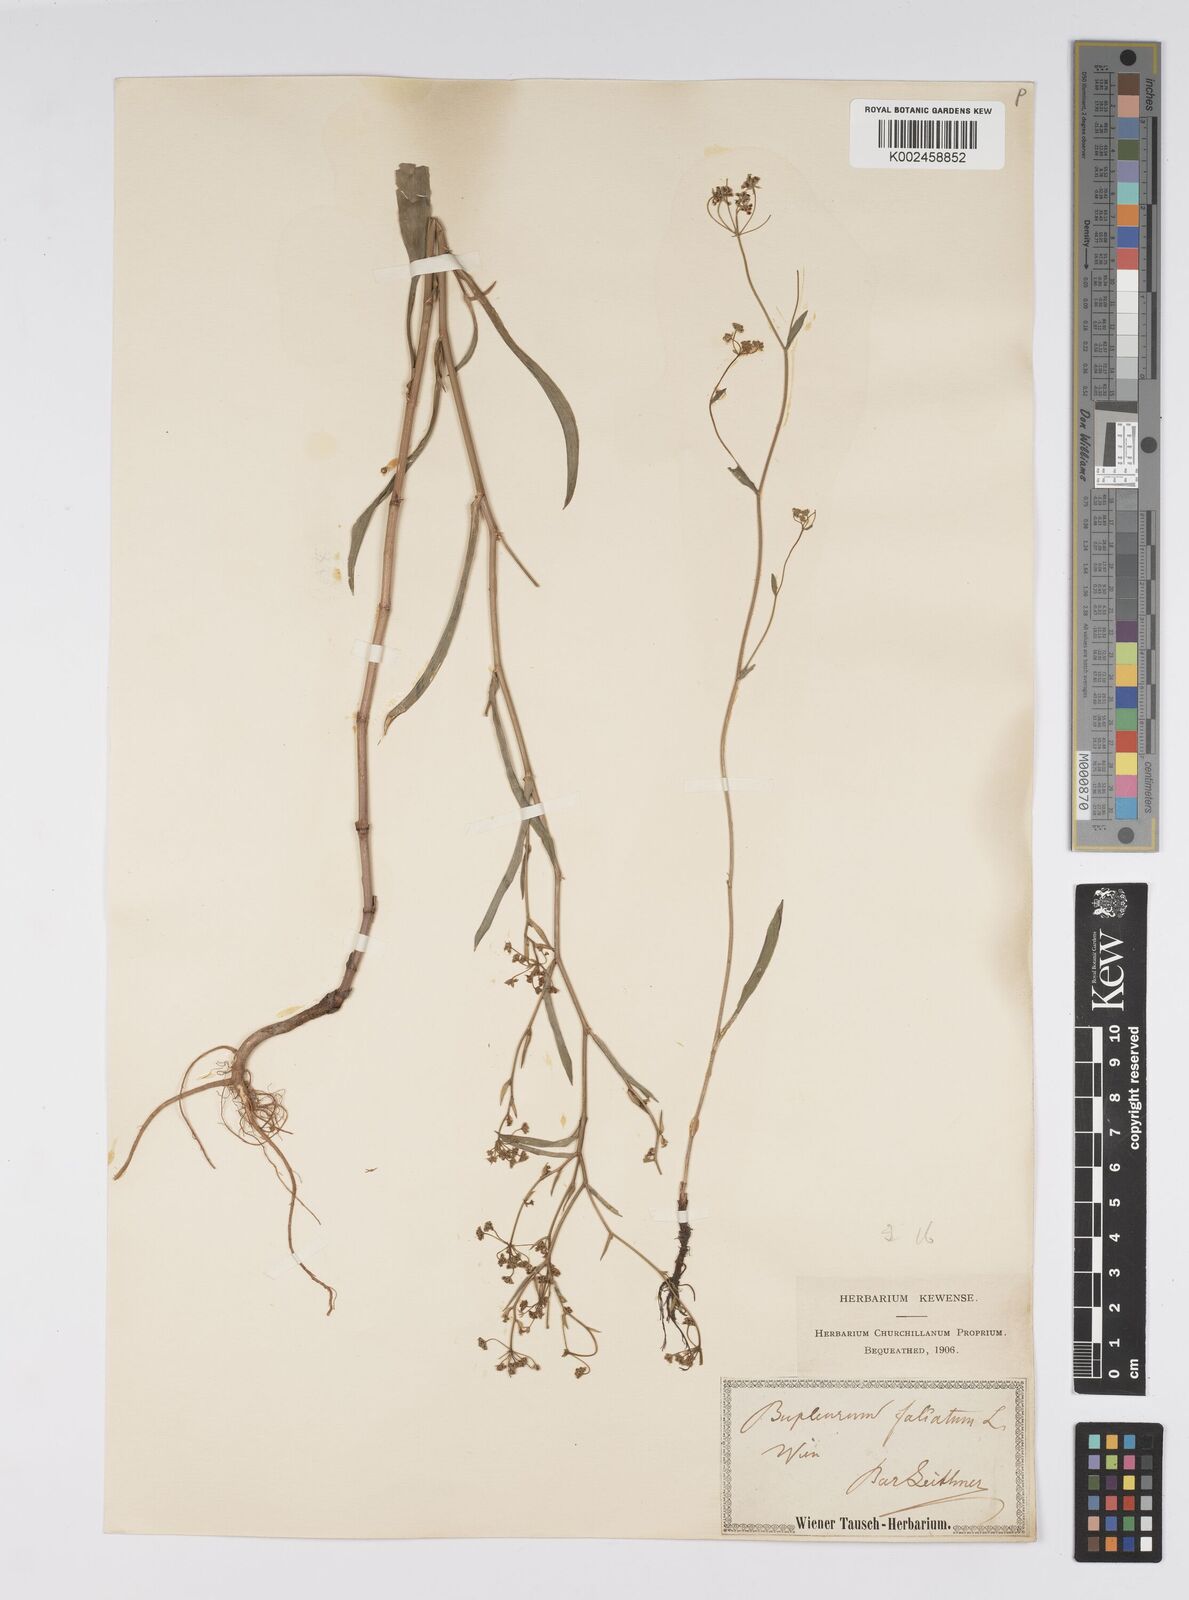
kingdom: Plantae
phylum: Tracheophyta
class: Magnoliopsida
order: Apiales
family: Apiaceae
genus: Bupleurum
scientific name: Bupleurum falcatum
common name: Sickle-leaved hare's-ear
